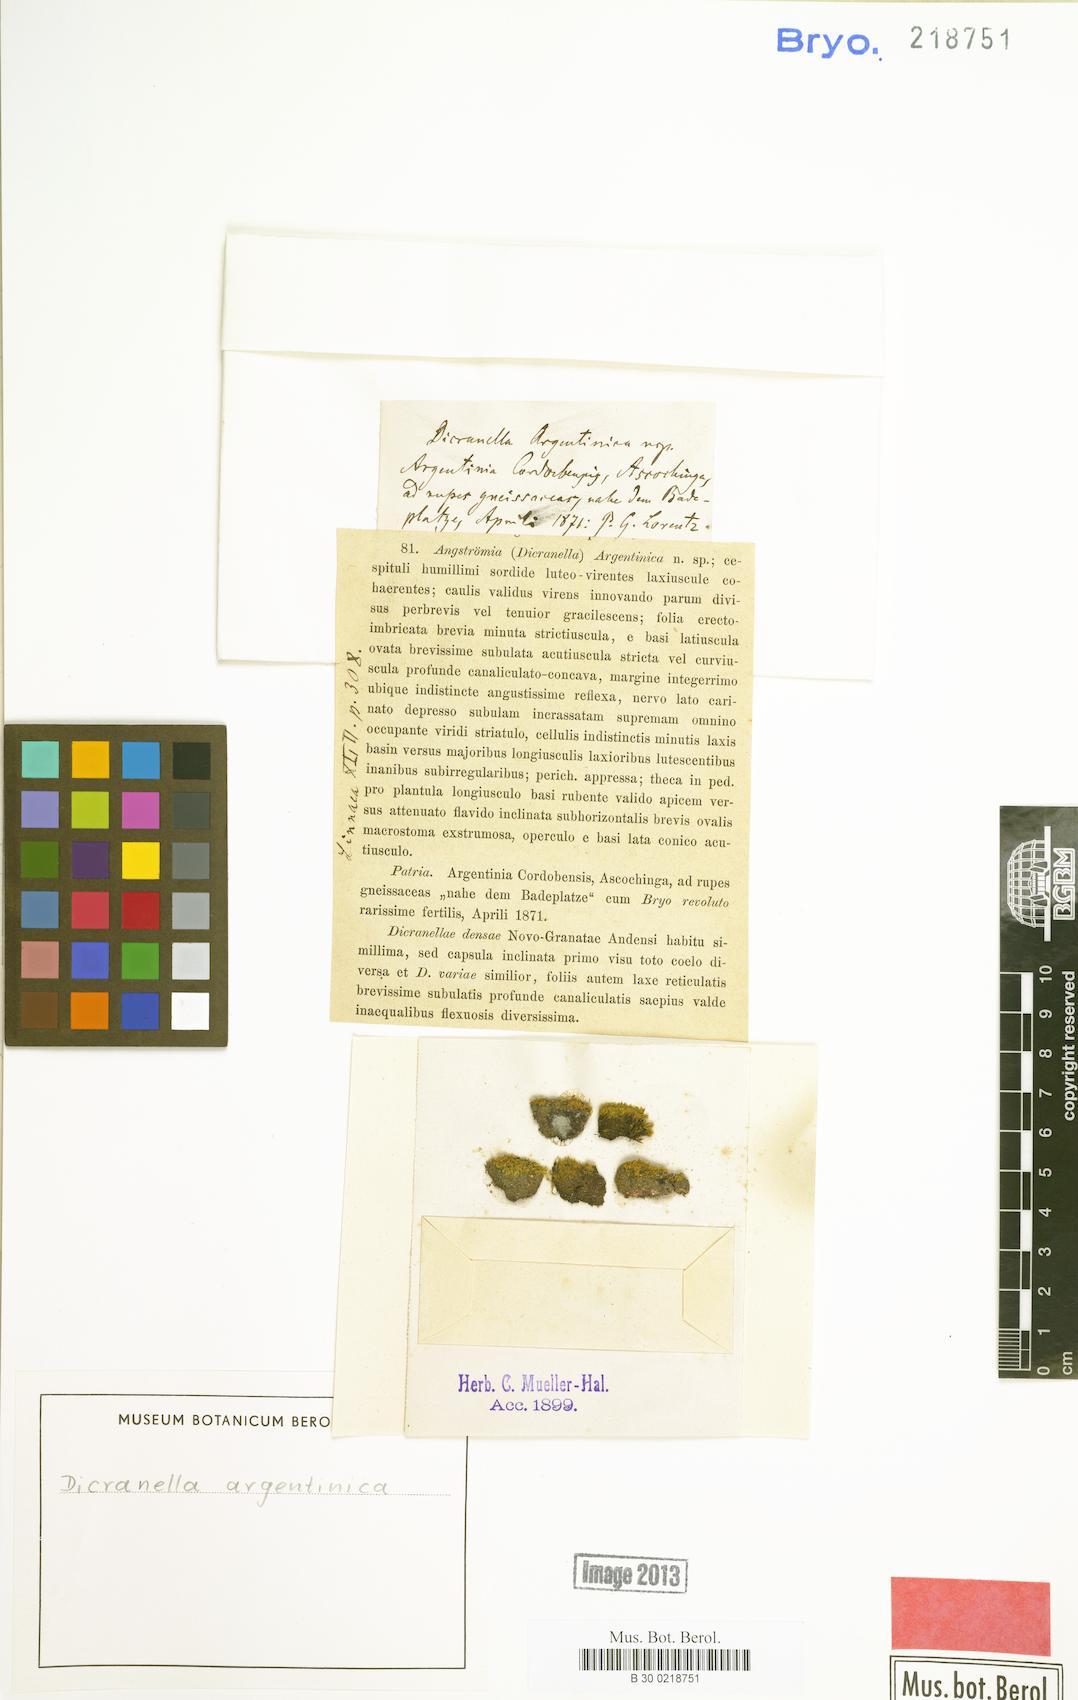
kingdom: Plantae
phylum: Bryophyta
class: Bryopsida
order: Dicranales
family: Dicranellaceae
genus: Dicranella
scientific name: Dicranella argentinica
